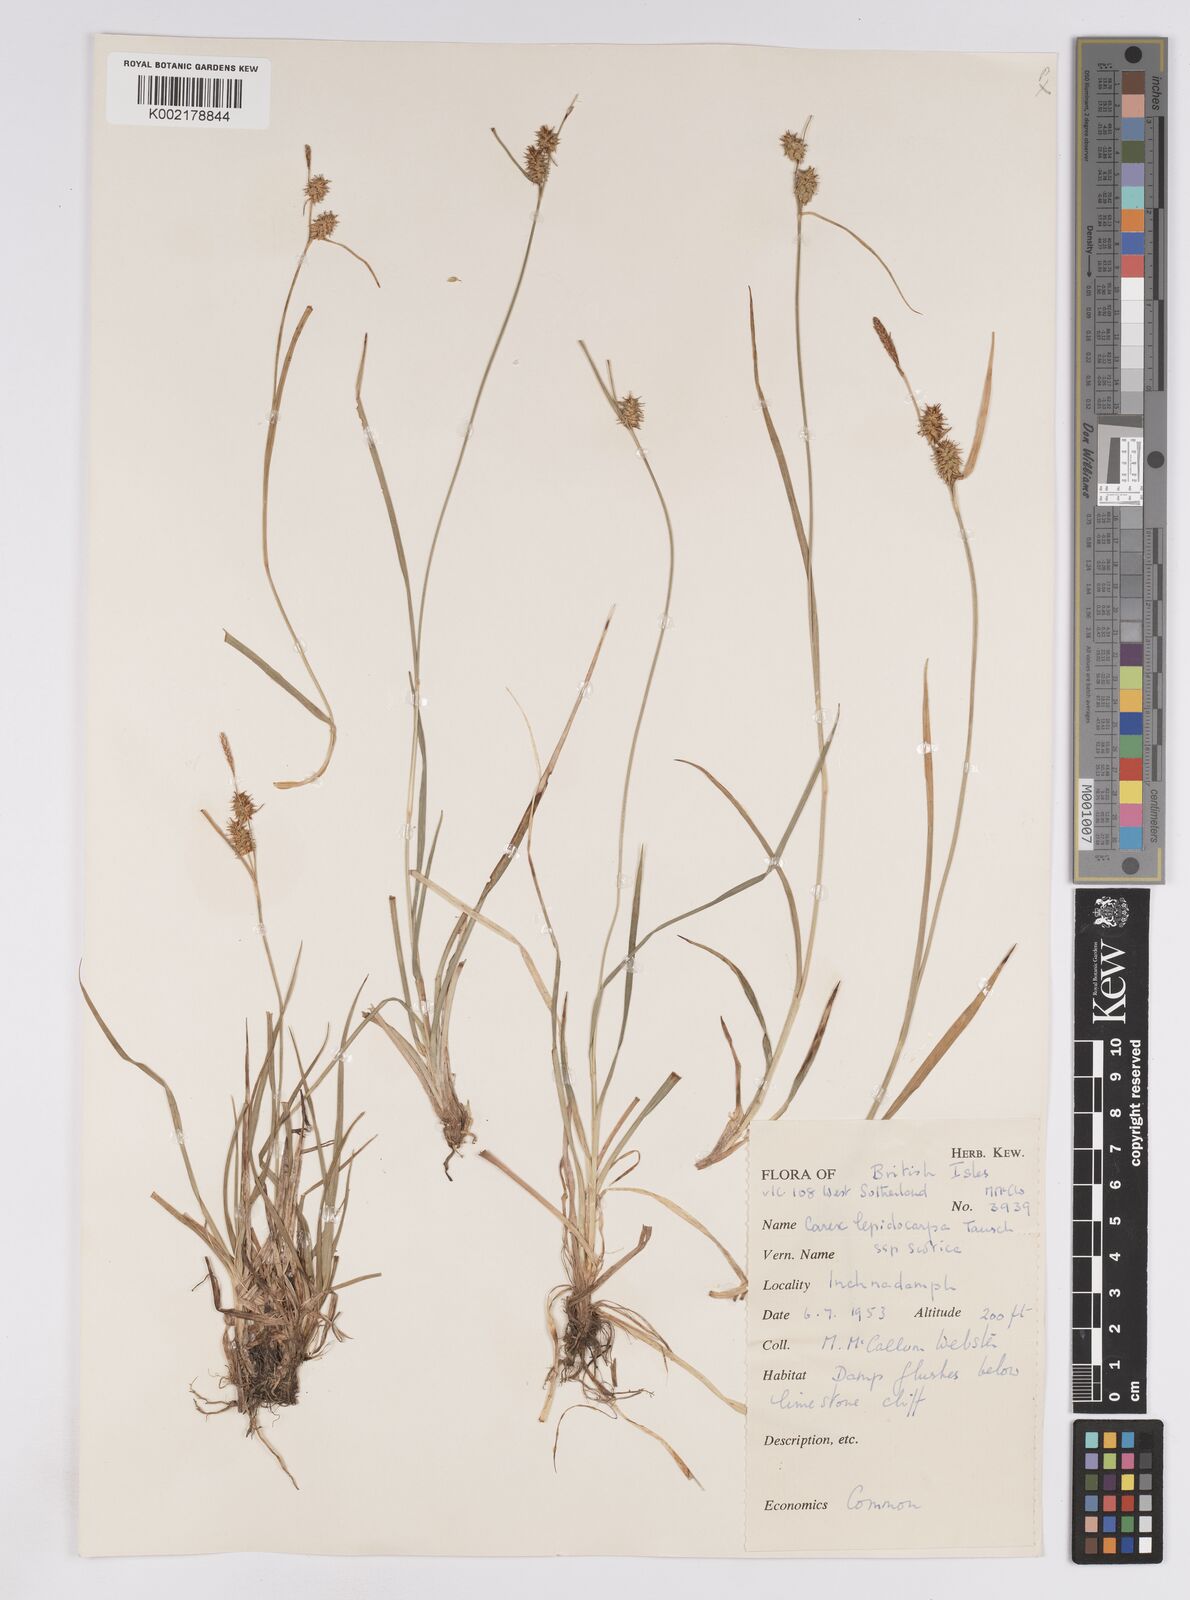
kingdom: Plantae
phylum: Tracheophyta
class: Liliopsida
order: Poales
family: Cyperaceae
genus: Carex
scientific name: Carex lepidocarpa
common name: Long-stalked yellow-sedge
